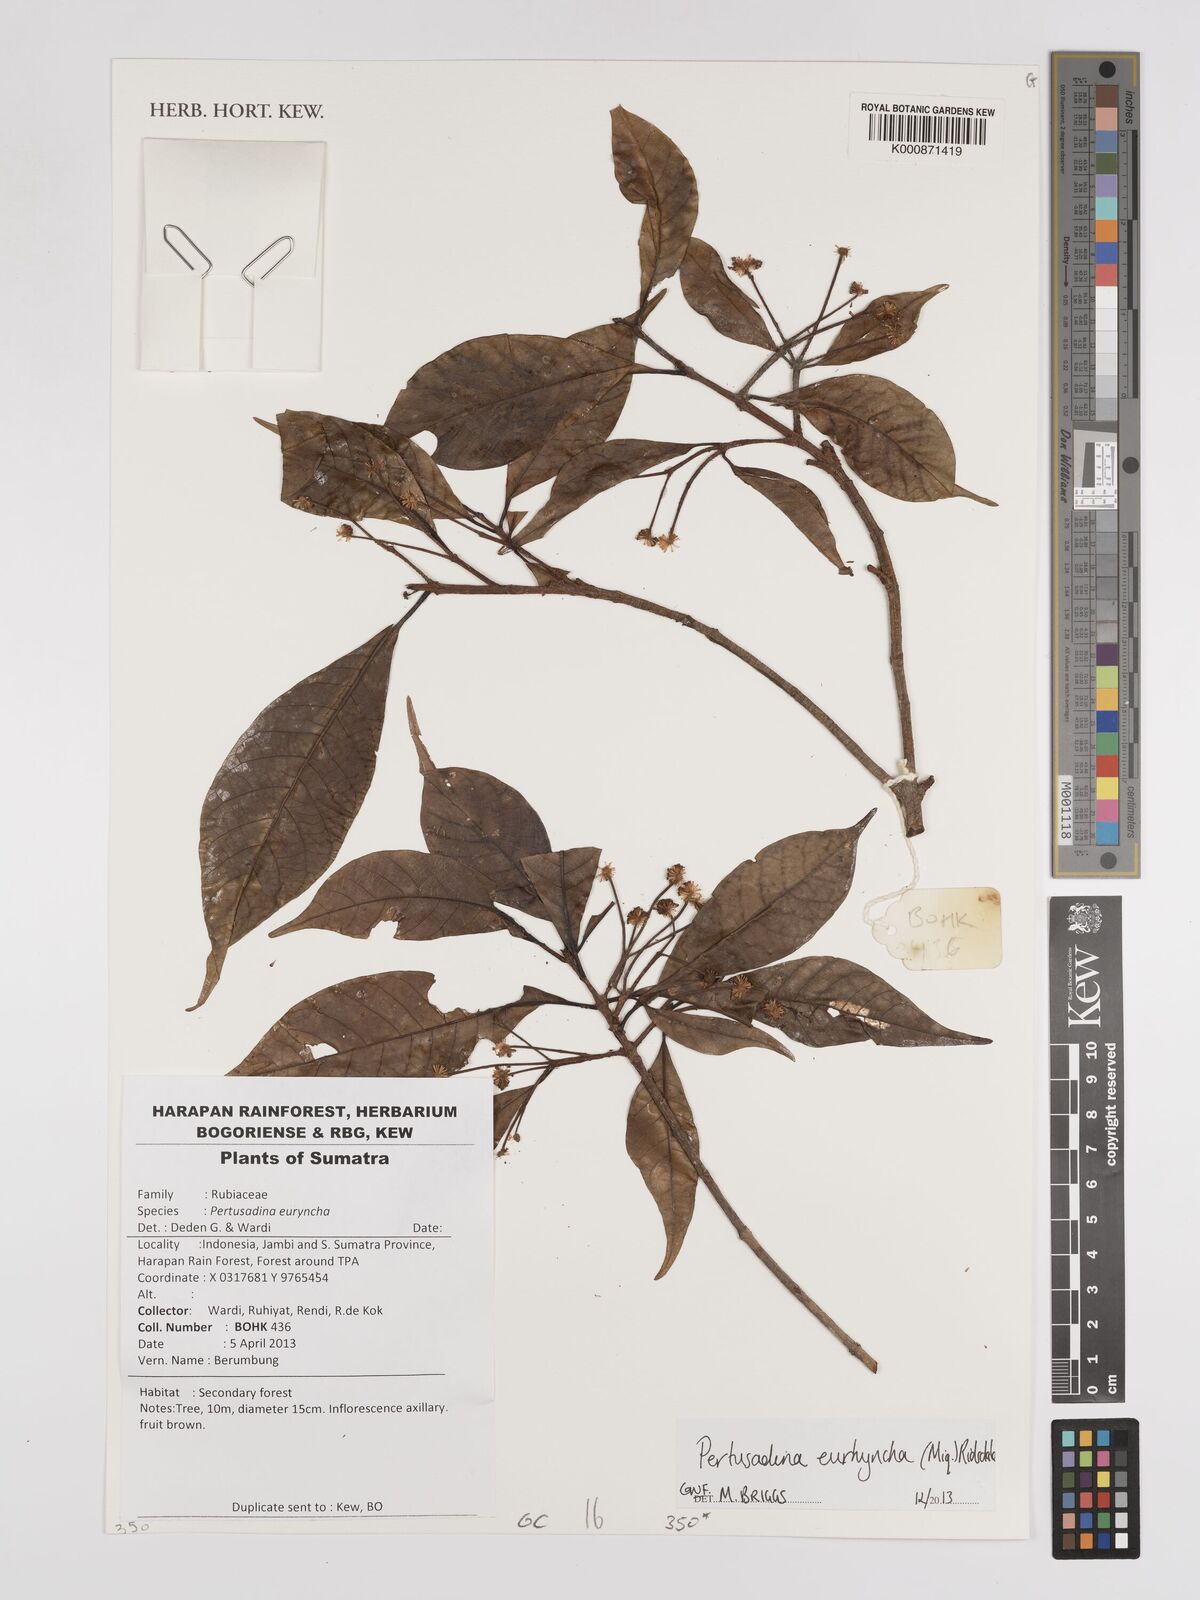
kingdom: Plantae
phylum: Tracheophyta
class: Magnoliopsida
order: Gentianales
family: Rubiaceae
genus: Adina
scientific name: Adina eurhyncha
